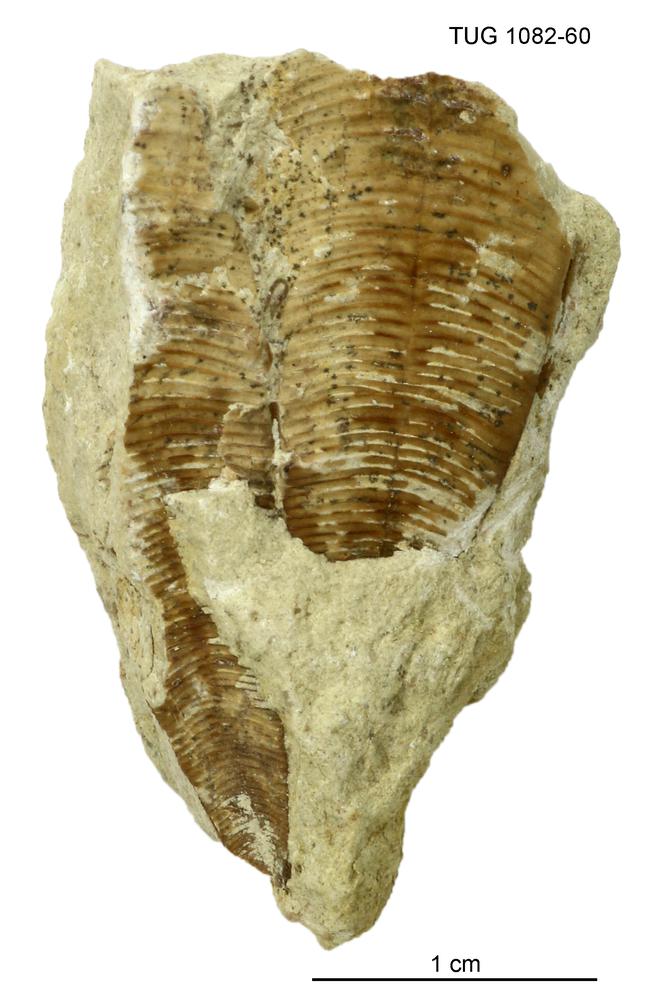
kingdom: Animalia
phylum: Cnidaria
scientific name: Cnidaria
